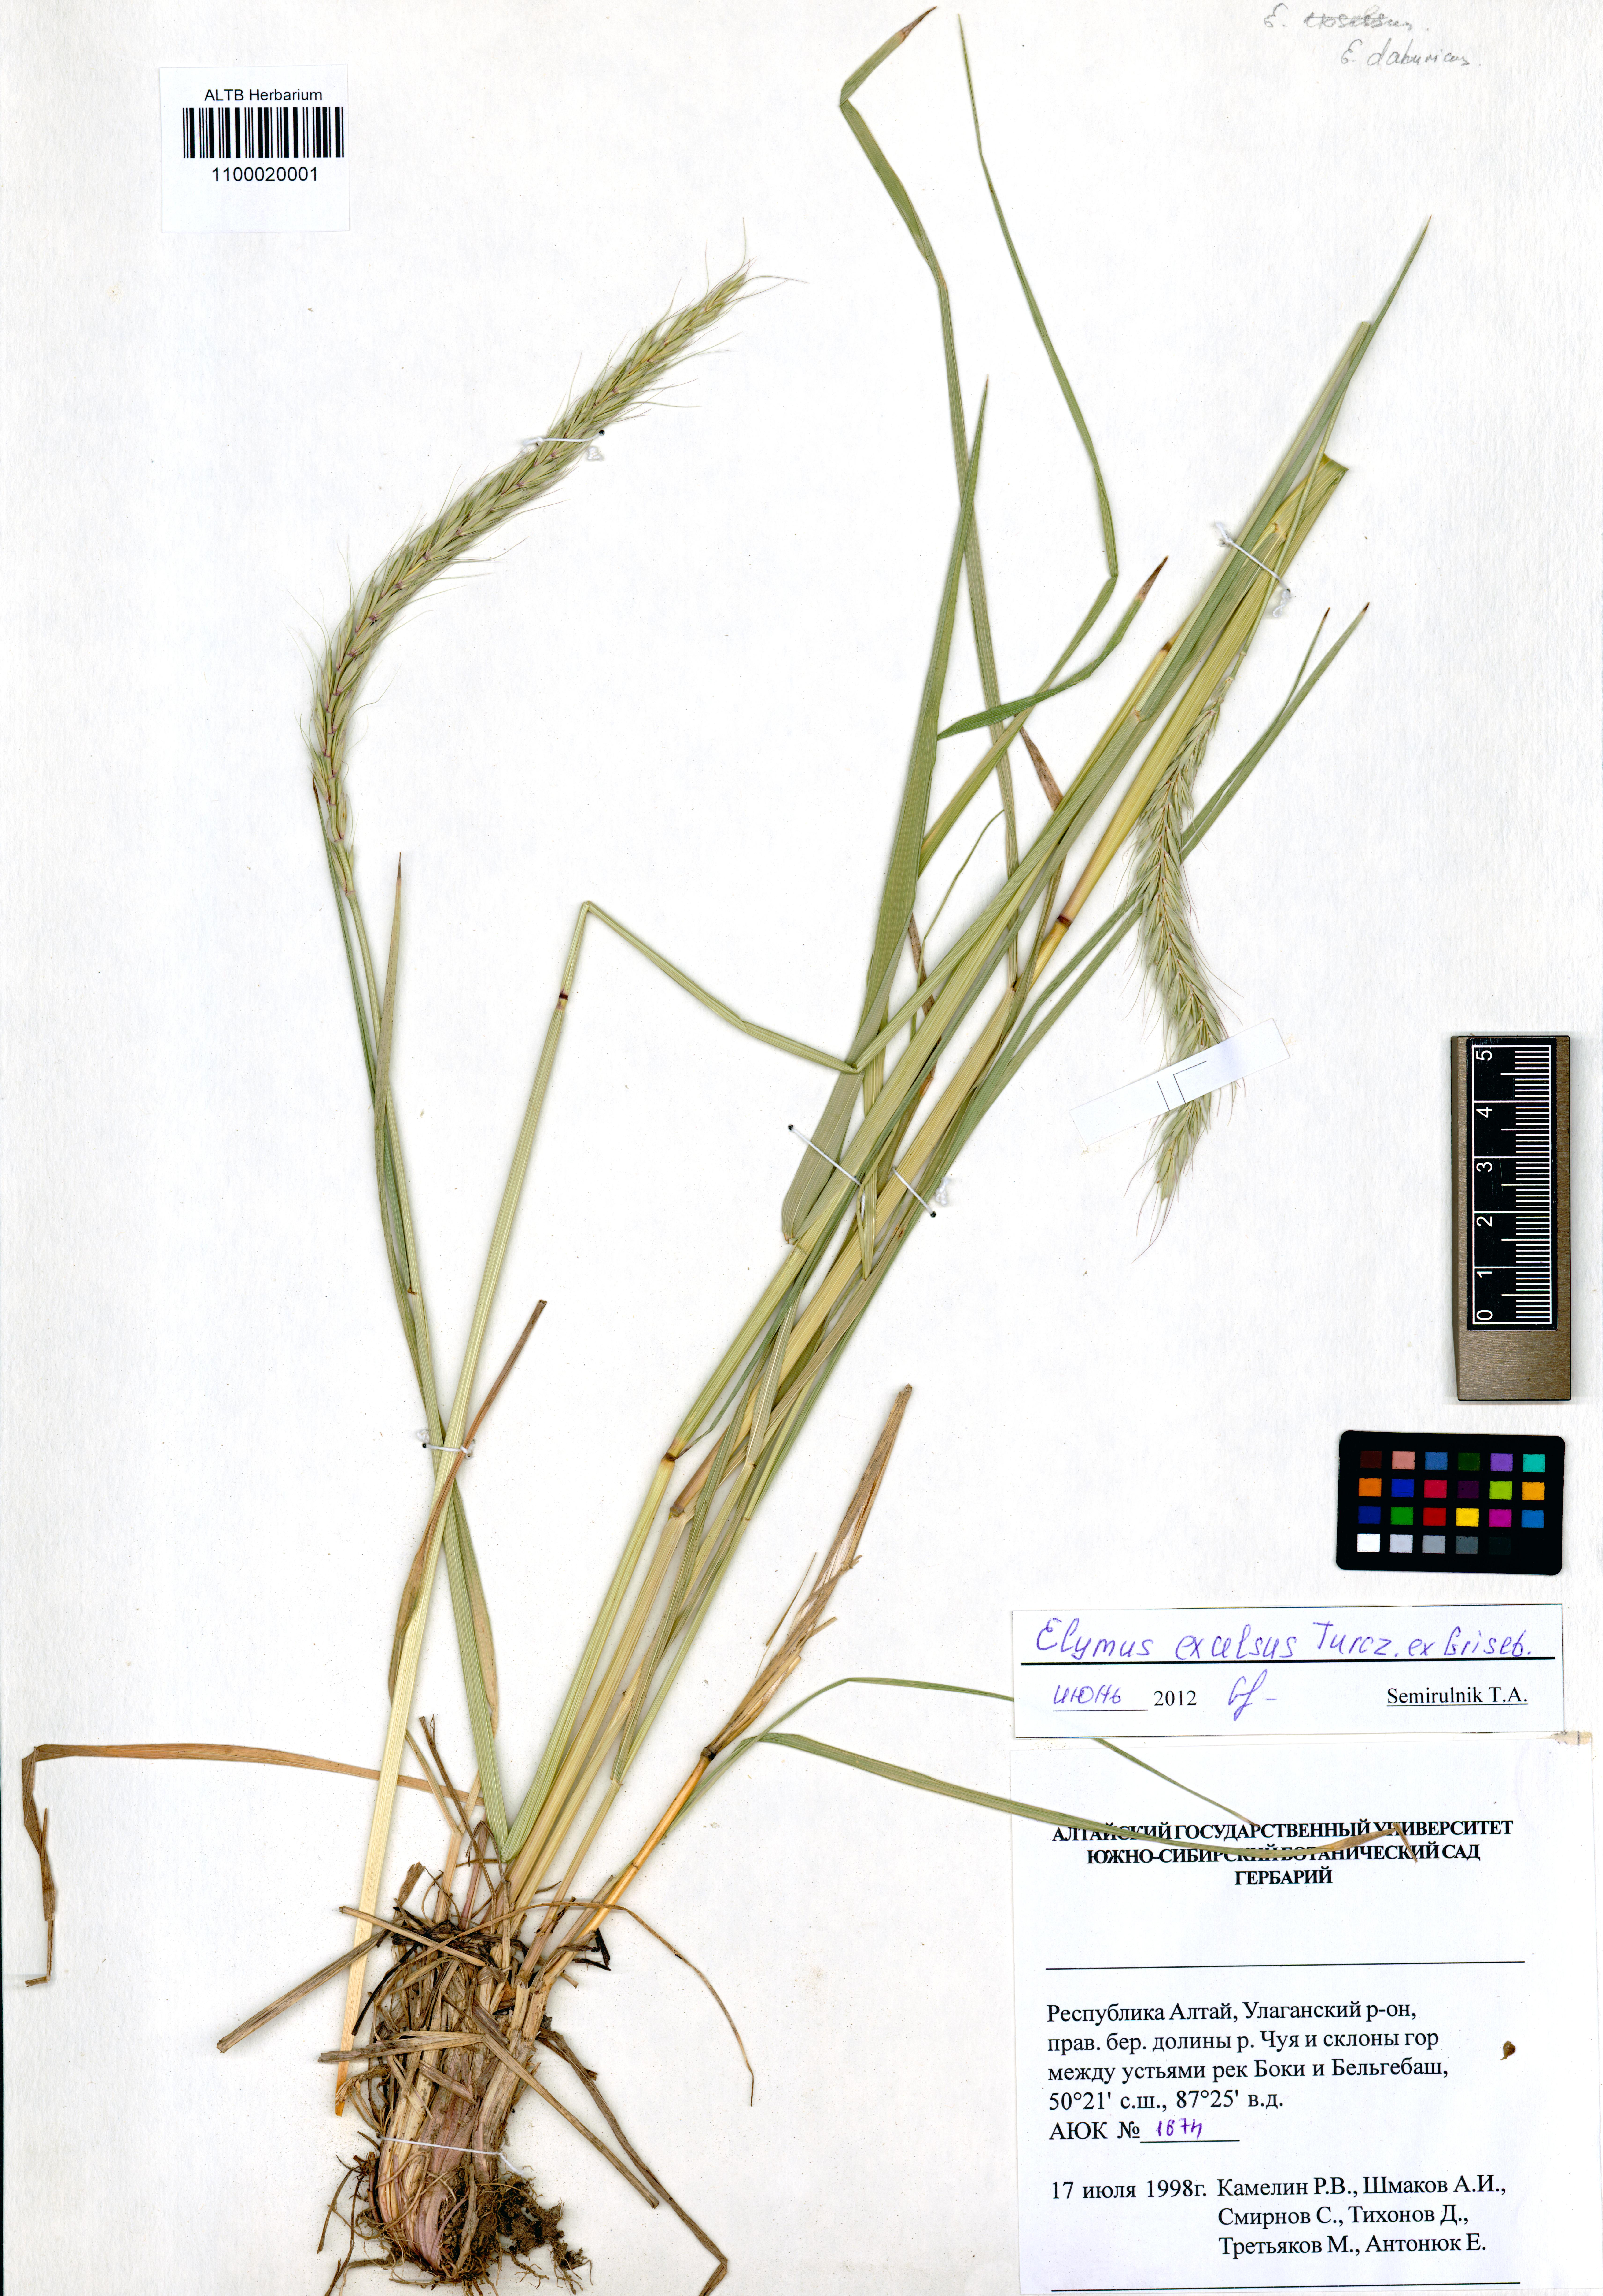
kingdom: Plantae
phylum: Tracheophyta
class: Liliopsida
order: Poales
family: Poaceae
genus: Elymus
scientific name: Elymus dahuricus
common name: Dahurian wild rye
